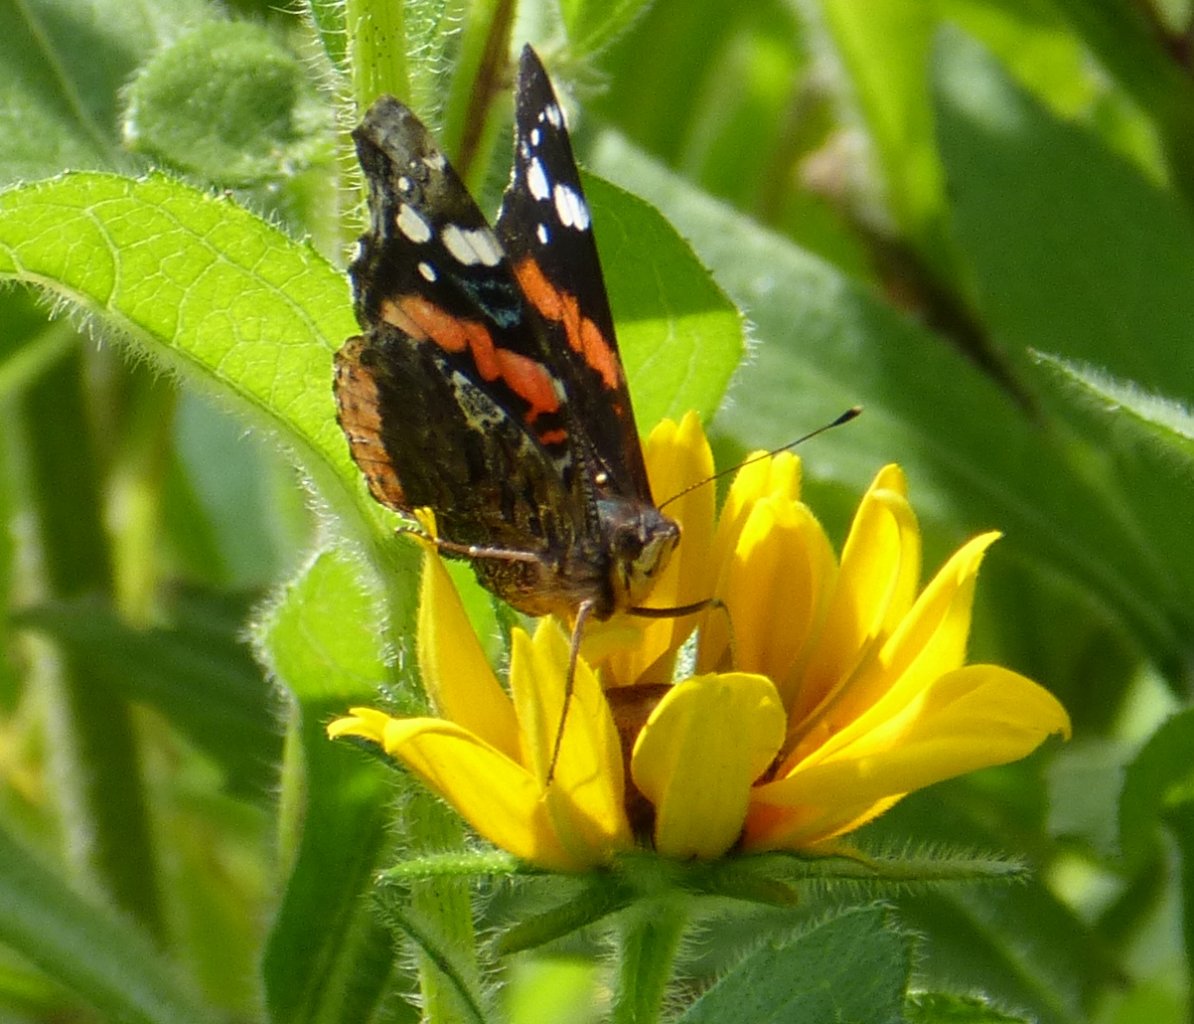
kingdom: Animalia
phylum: Arthropoda
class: Insecta
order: Lepidoptera
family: Nymphalidae
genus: Vanessa
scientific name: Vanessa atalanta
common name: Red Admiral
